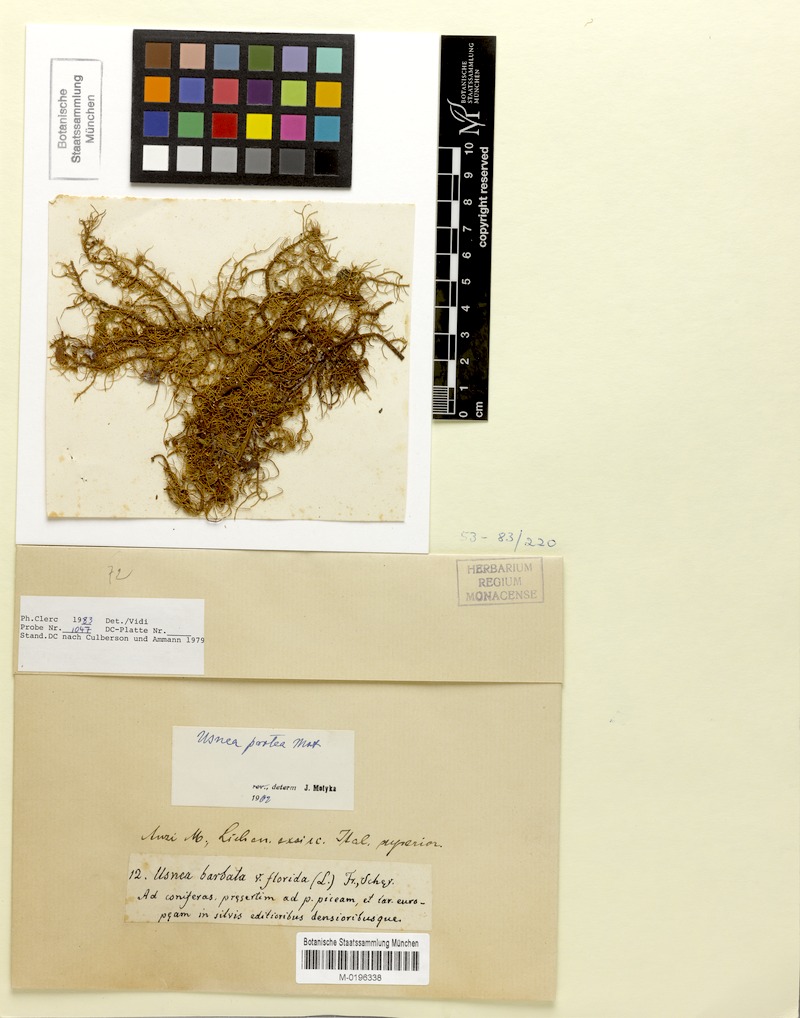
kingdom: Fungi
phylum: Ascomycota
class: Lecanoromycetes
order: Lecanorales
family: Parmeliaceae
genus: Usnea
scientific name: Usnea quasirigida
